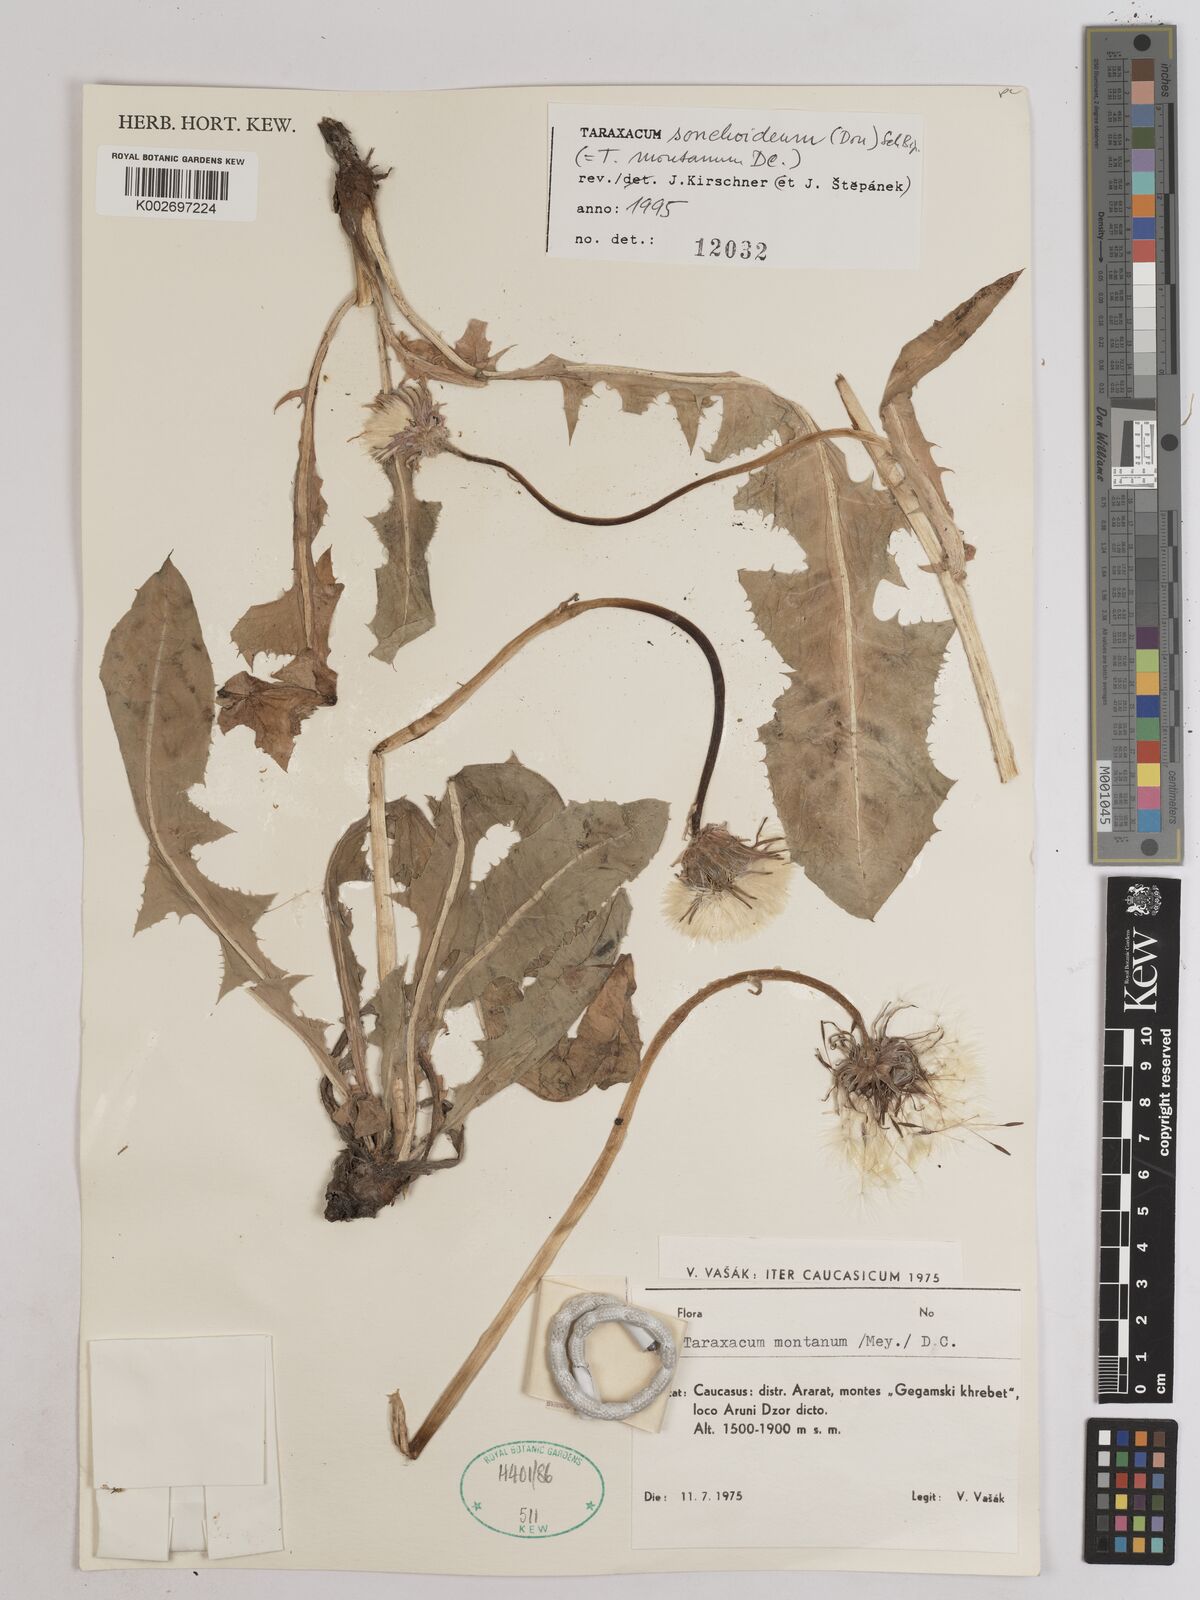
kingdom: Plantae
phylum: Tracheophyta
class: Magnoliopsida
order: Asterales
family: Asteraceae
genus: Taraxacum
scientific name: Taraxacum sonchoides
